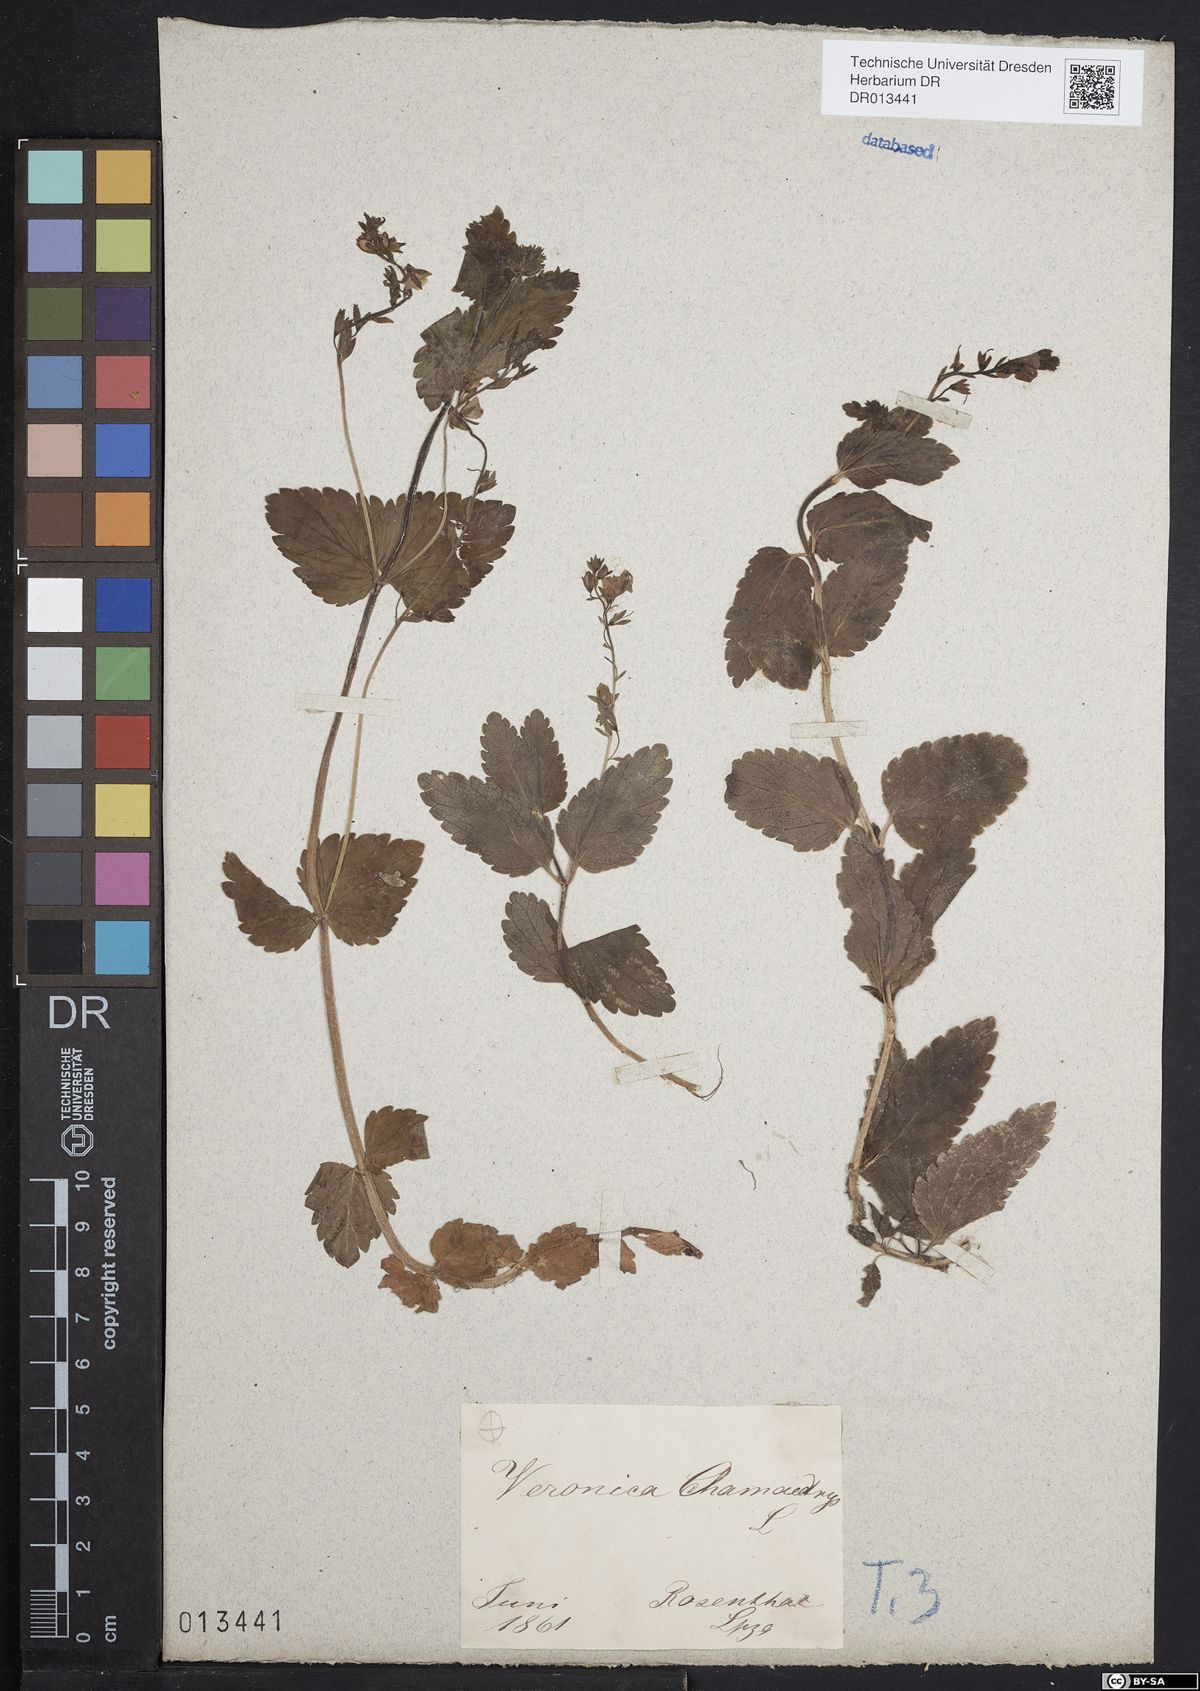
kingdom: Plantae
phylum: Tracheophyta
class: Magnoliopsida
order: Lamiales
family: Plantaginaceae
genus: Veronica
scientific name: Veronica chamaedrys
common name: Germander speedwell
